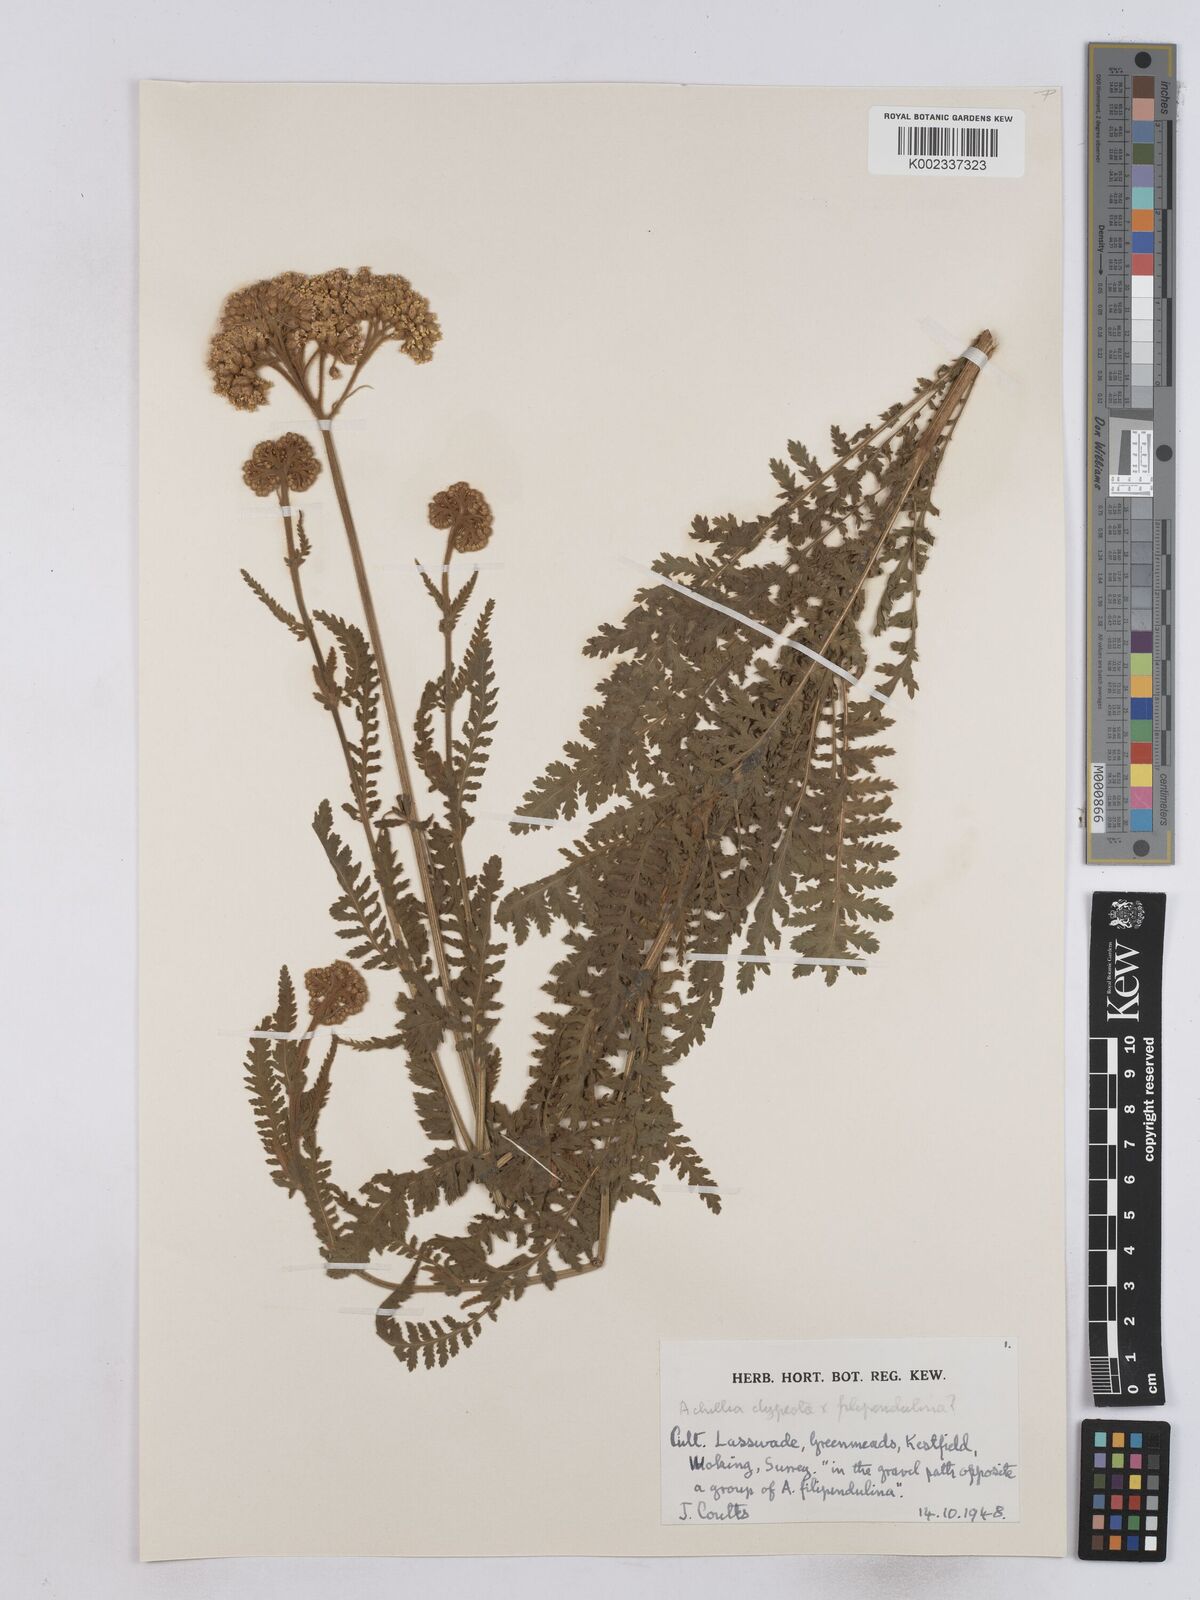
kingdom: Plantae
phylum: Tracheophyta
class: Magnoliopsida
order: Asterales
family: Asteraceae
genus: Achillea
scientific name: Achillea clypeolata
